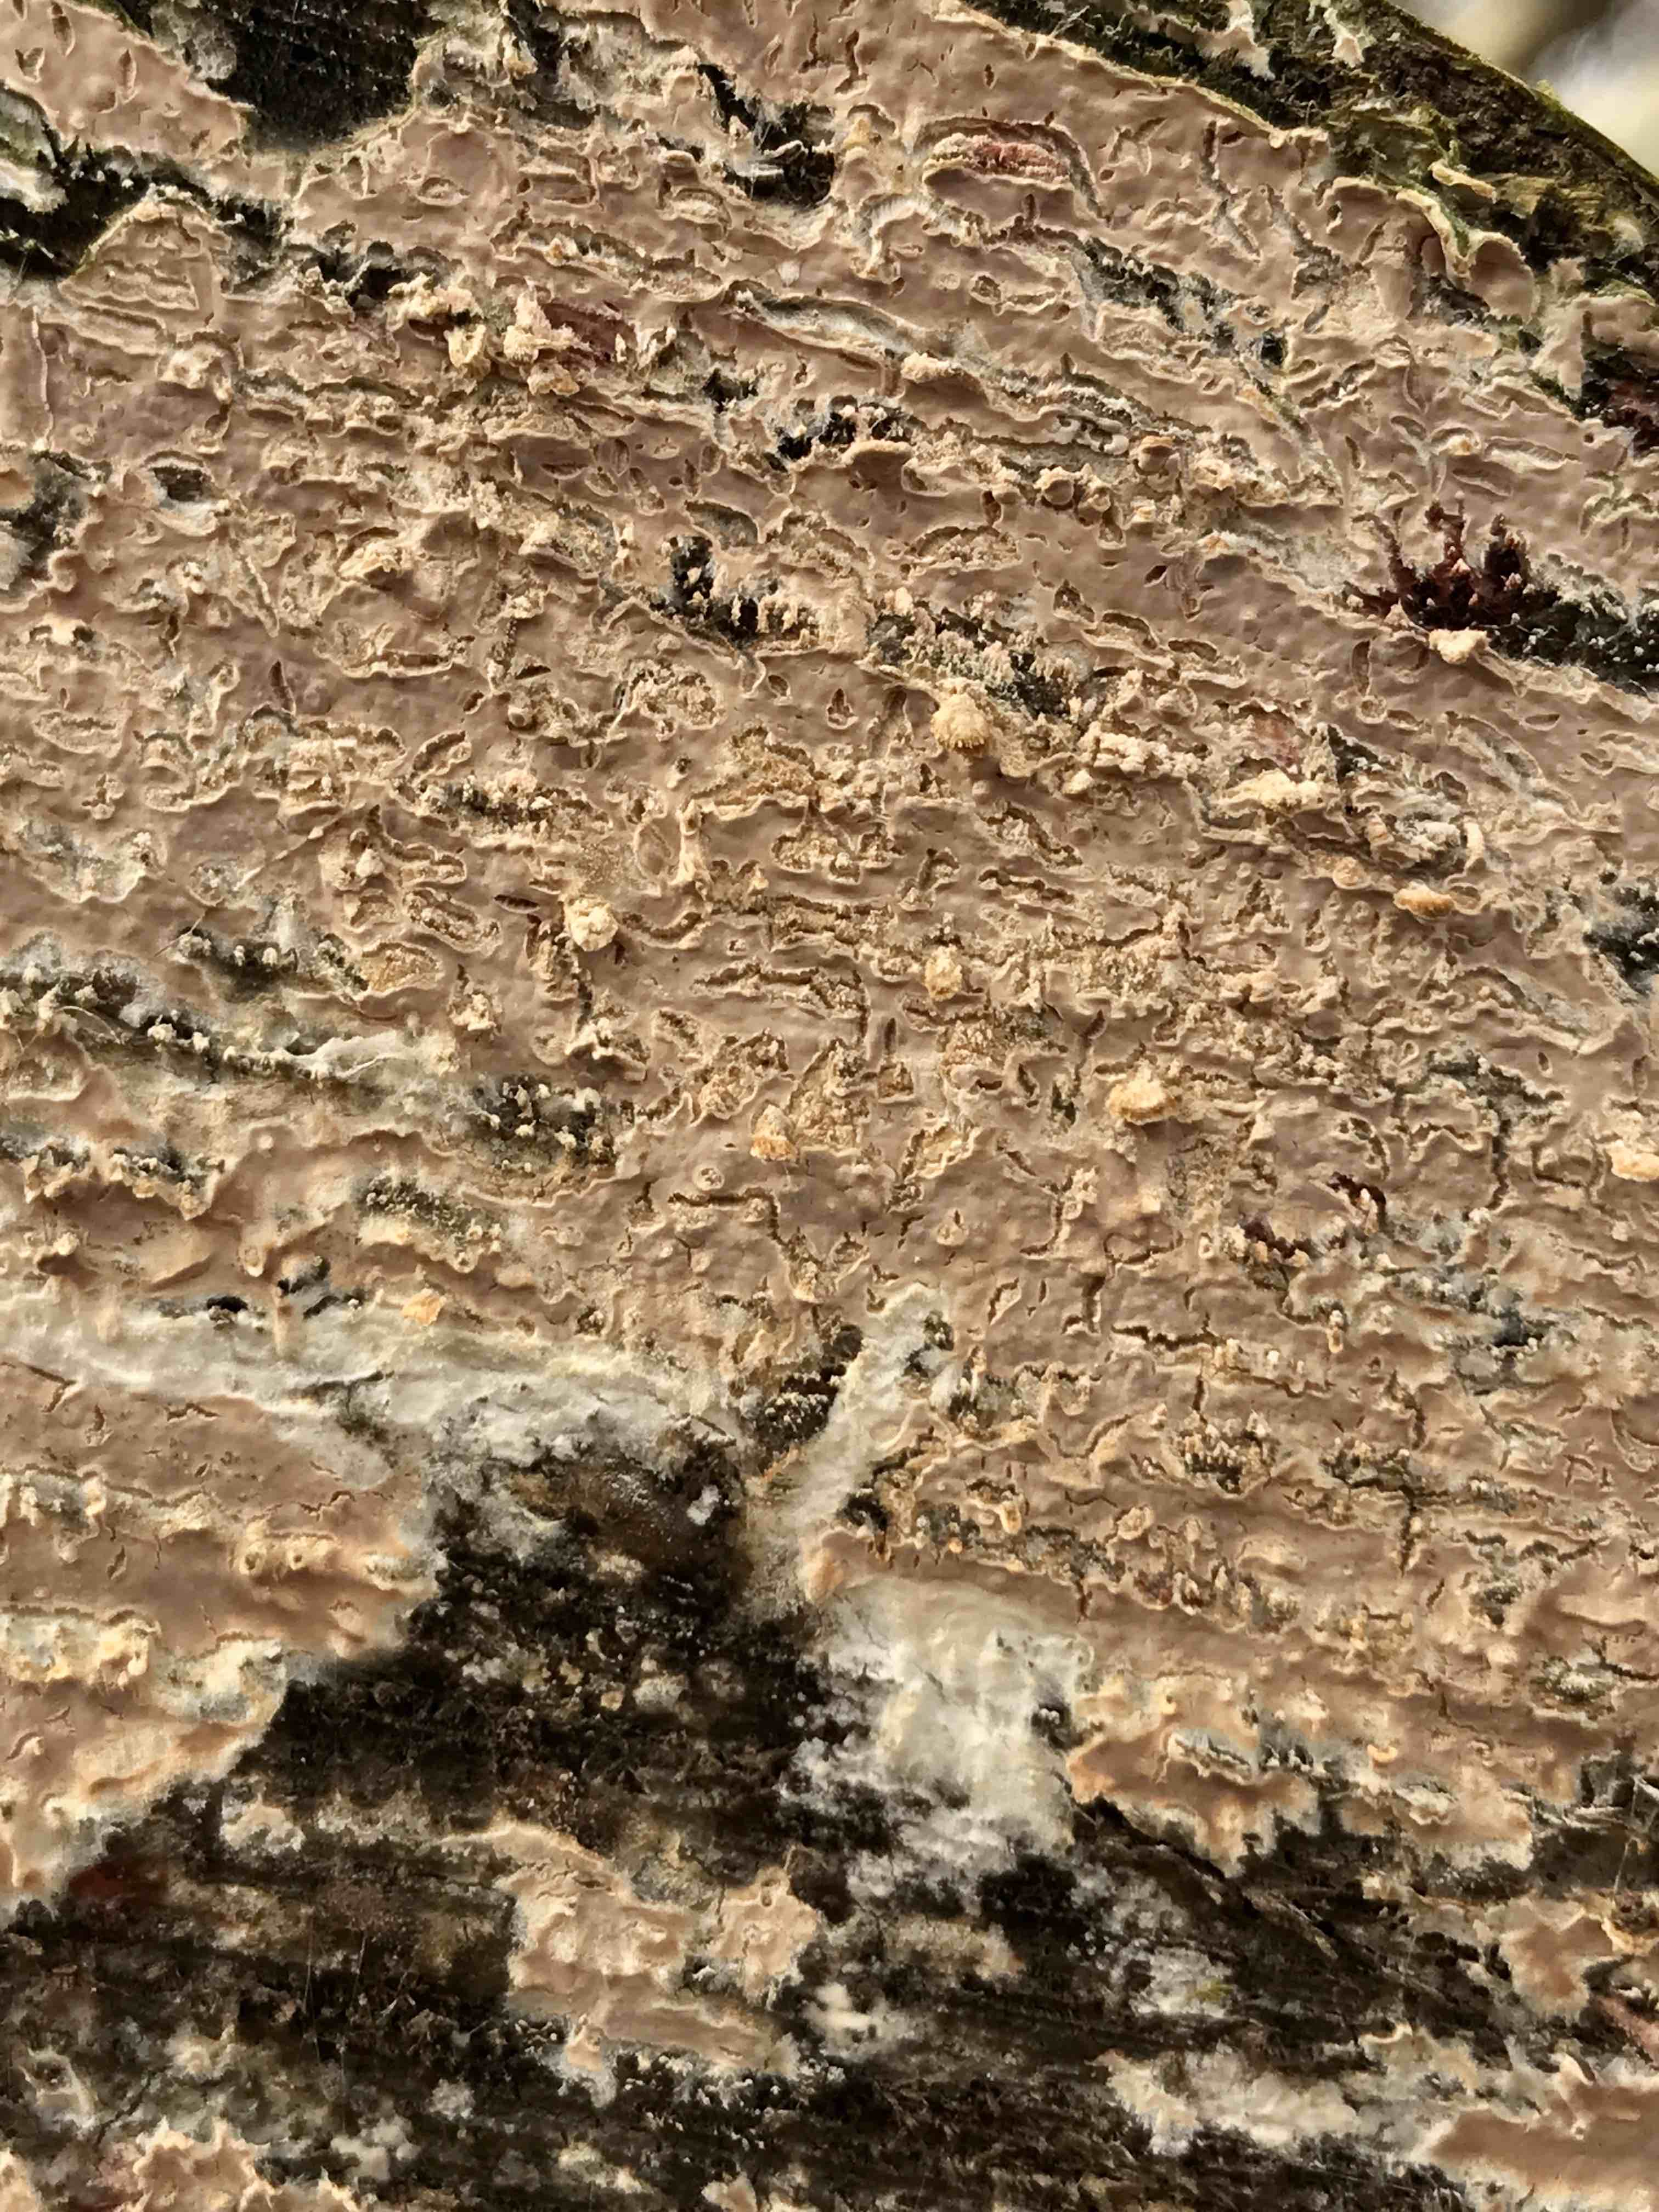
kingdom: Fungi
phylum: Basidiomycota
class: Agaricomycetes
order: Agaricales
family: Physalacriaceae
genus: Cylindrobasidium
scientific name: Cylindrobasidium evolvens
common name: sprækkehinde
